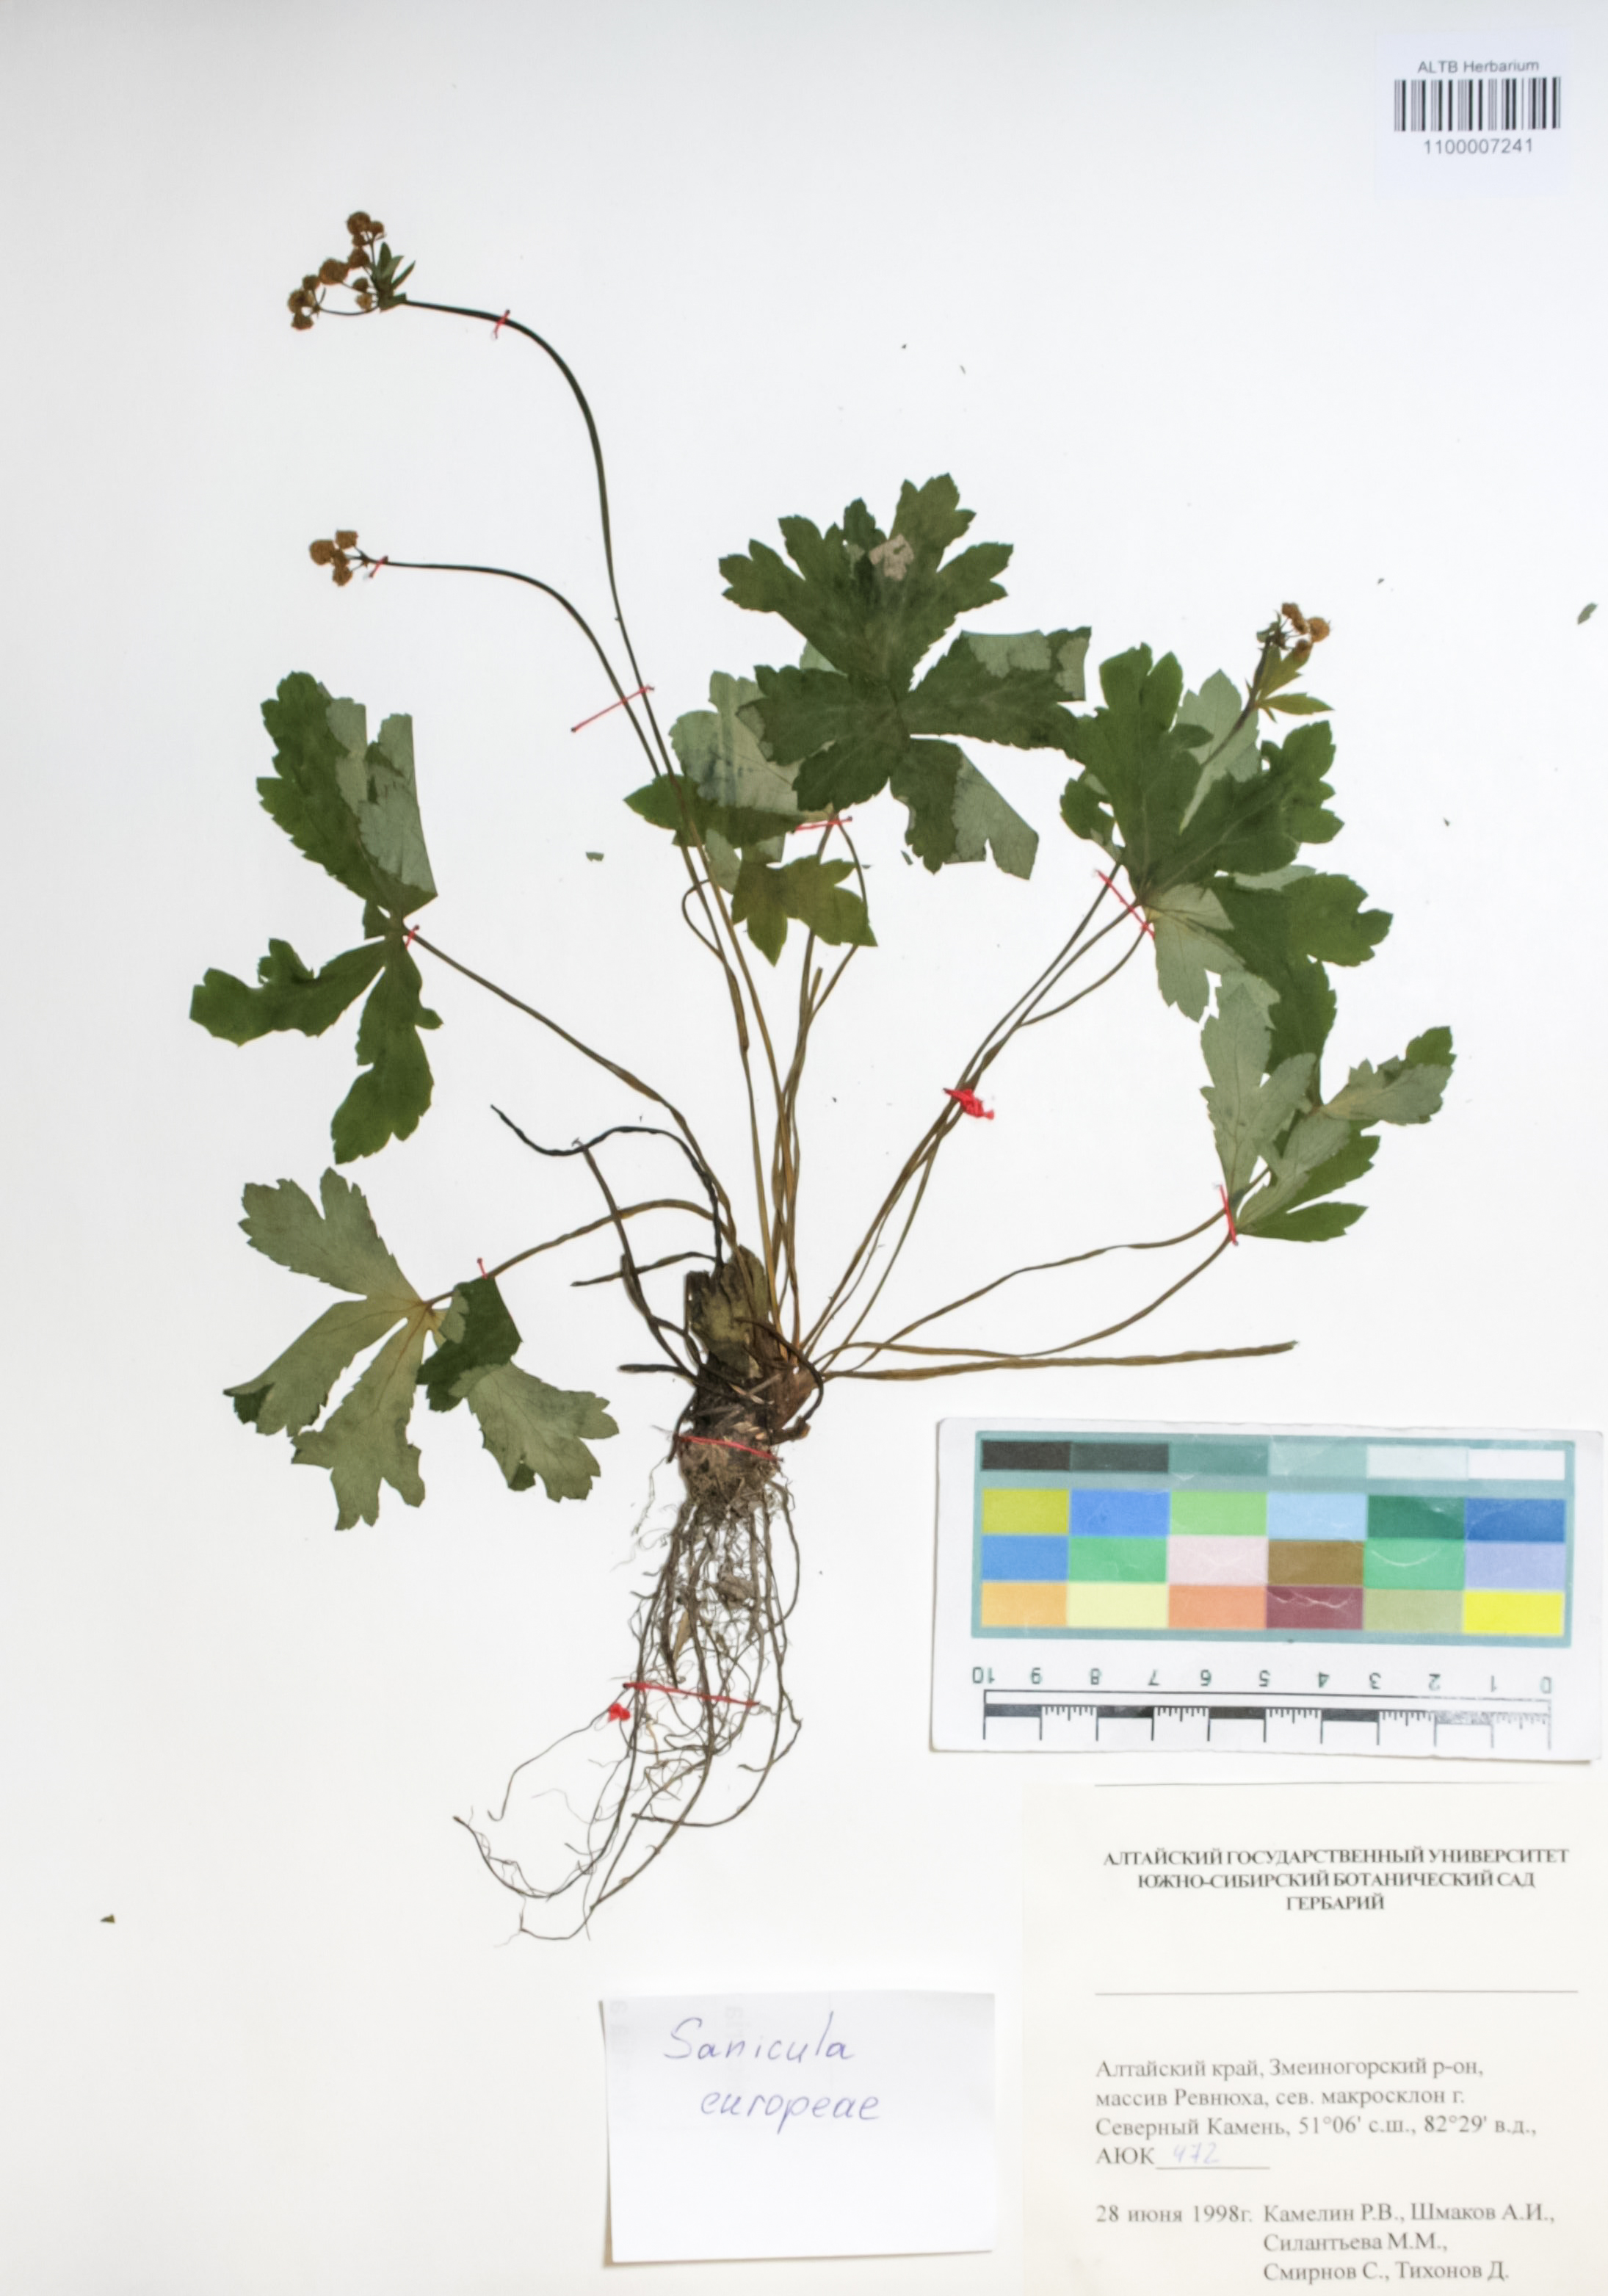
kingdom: Plantae
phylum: Tracheophyta
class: Magnoliopsida
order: Apiales
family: Apiaceae
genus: Sanicula
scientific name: Sanicula europaea
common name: Sanicle
